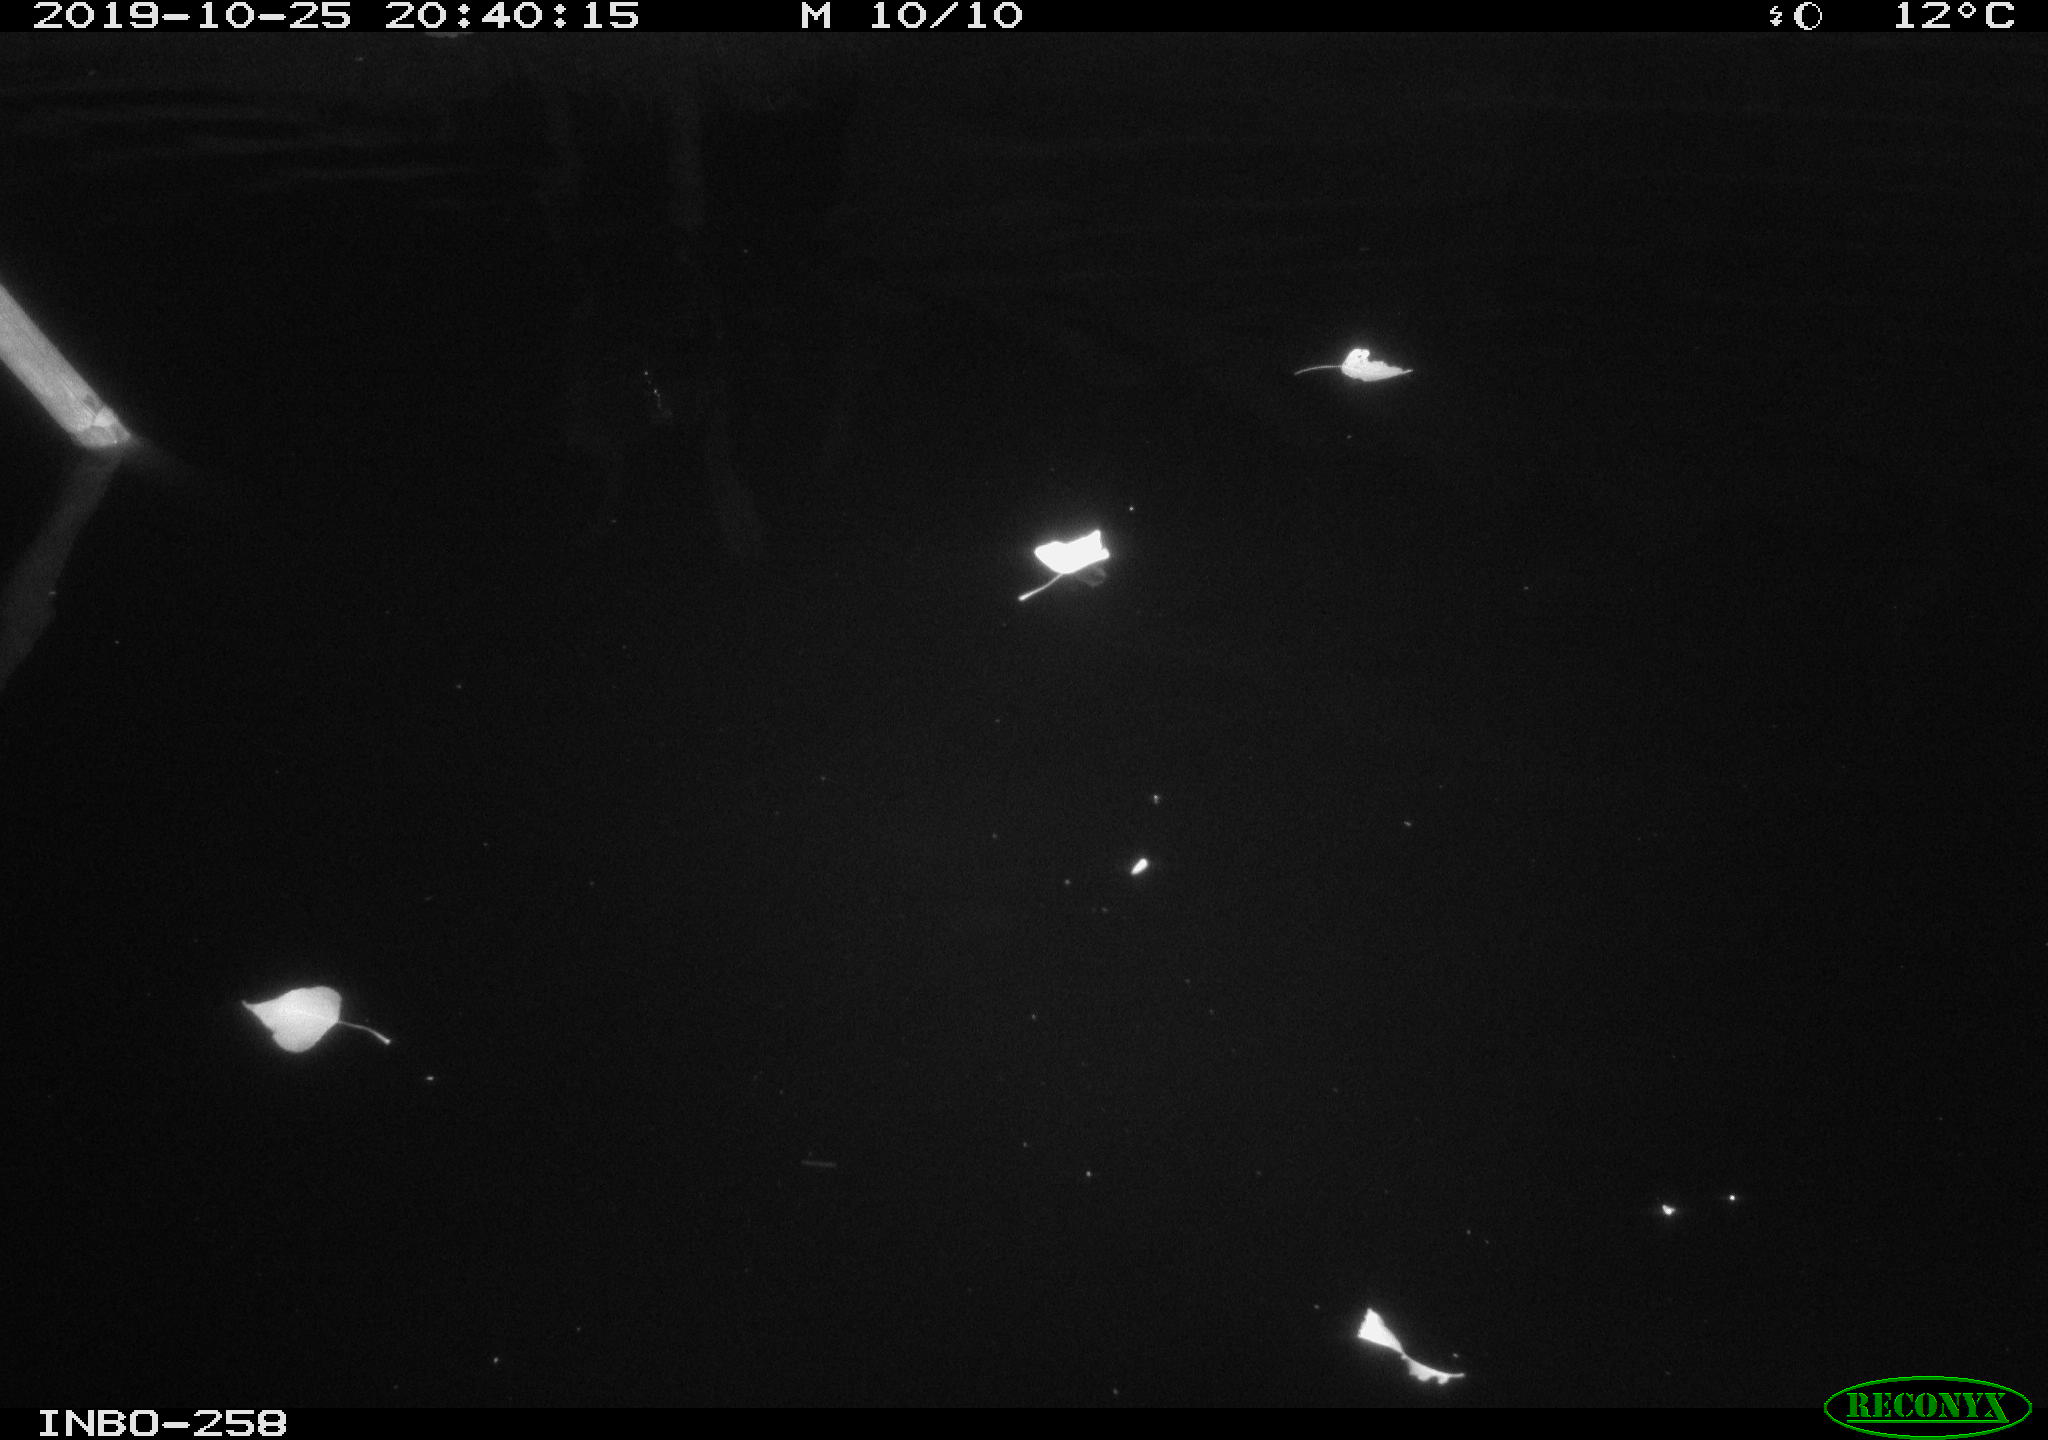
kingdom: Animalia
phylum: Chordata
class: Mammalia
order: Rodentia
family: Muridae
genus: Rattus
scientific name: Rattus norvegicus
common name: Brown rat
